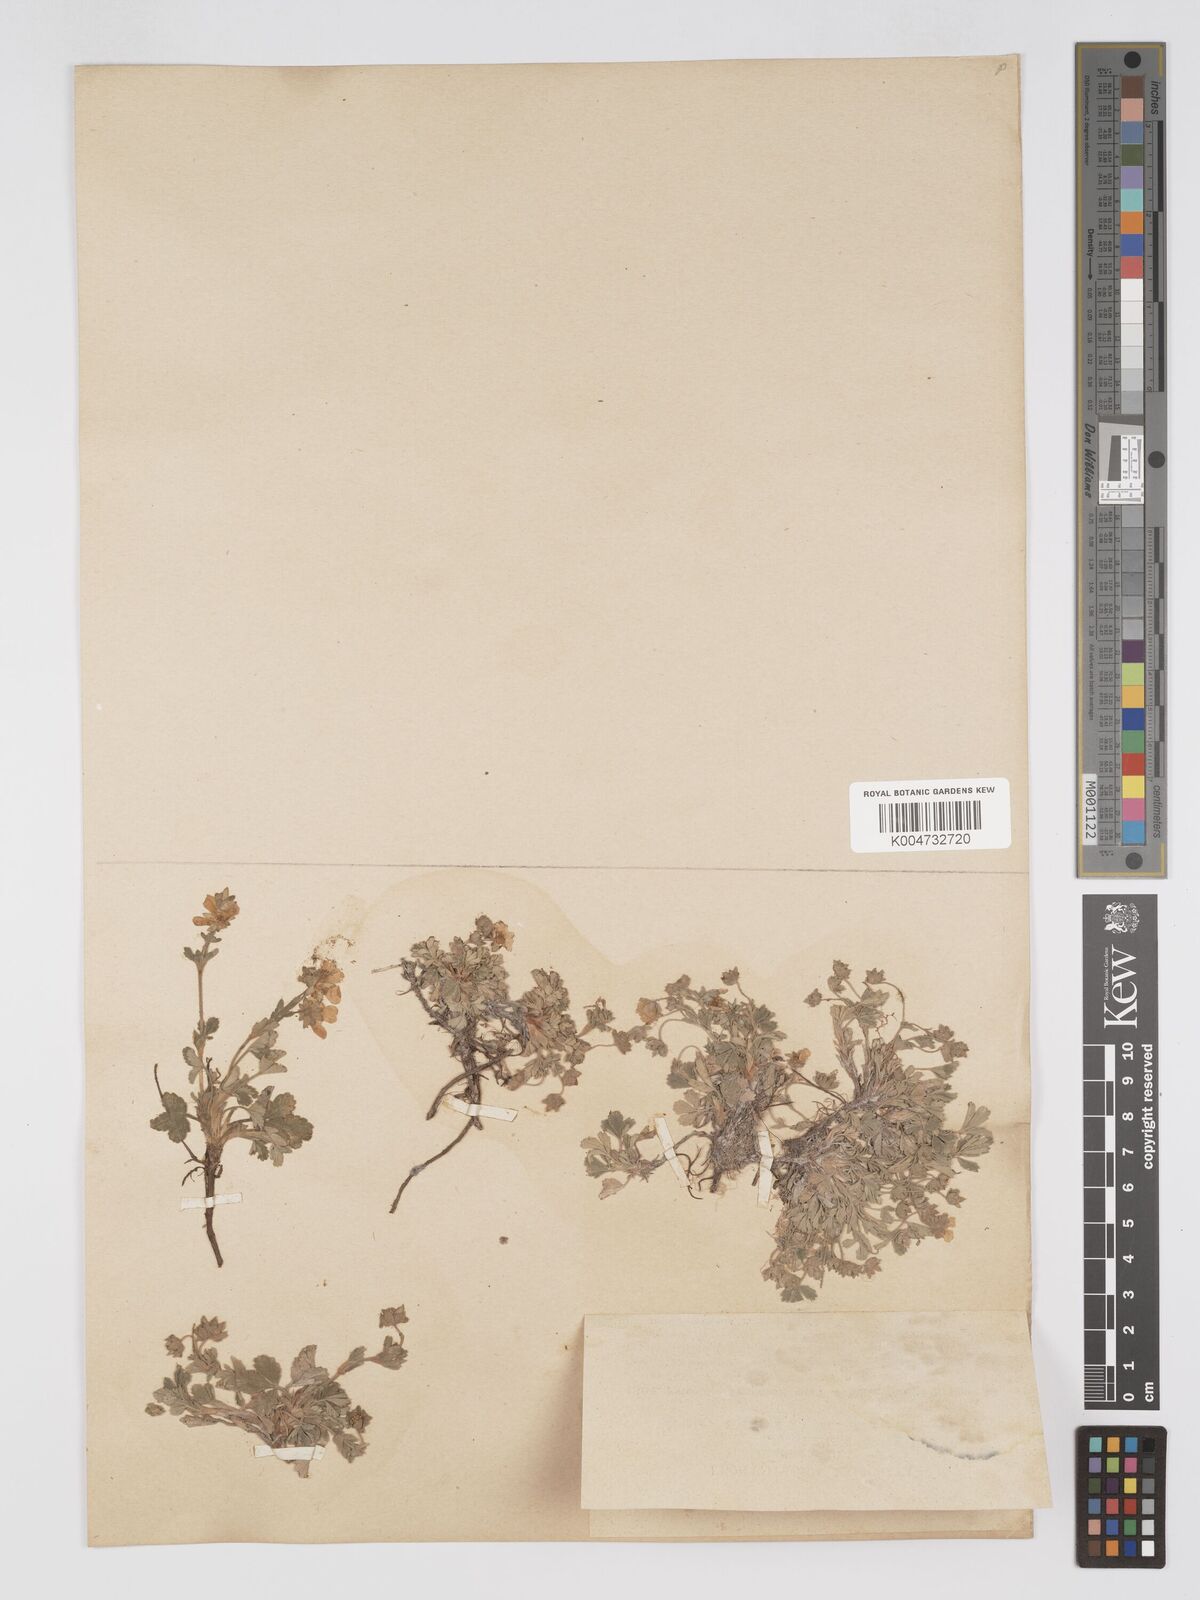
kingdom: Plantae
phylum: Tracheophyta
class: Magnoliopsida
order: Rosales
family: Rosaceae
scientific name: Rosaceae
